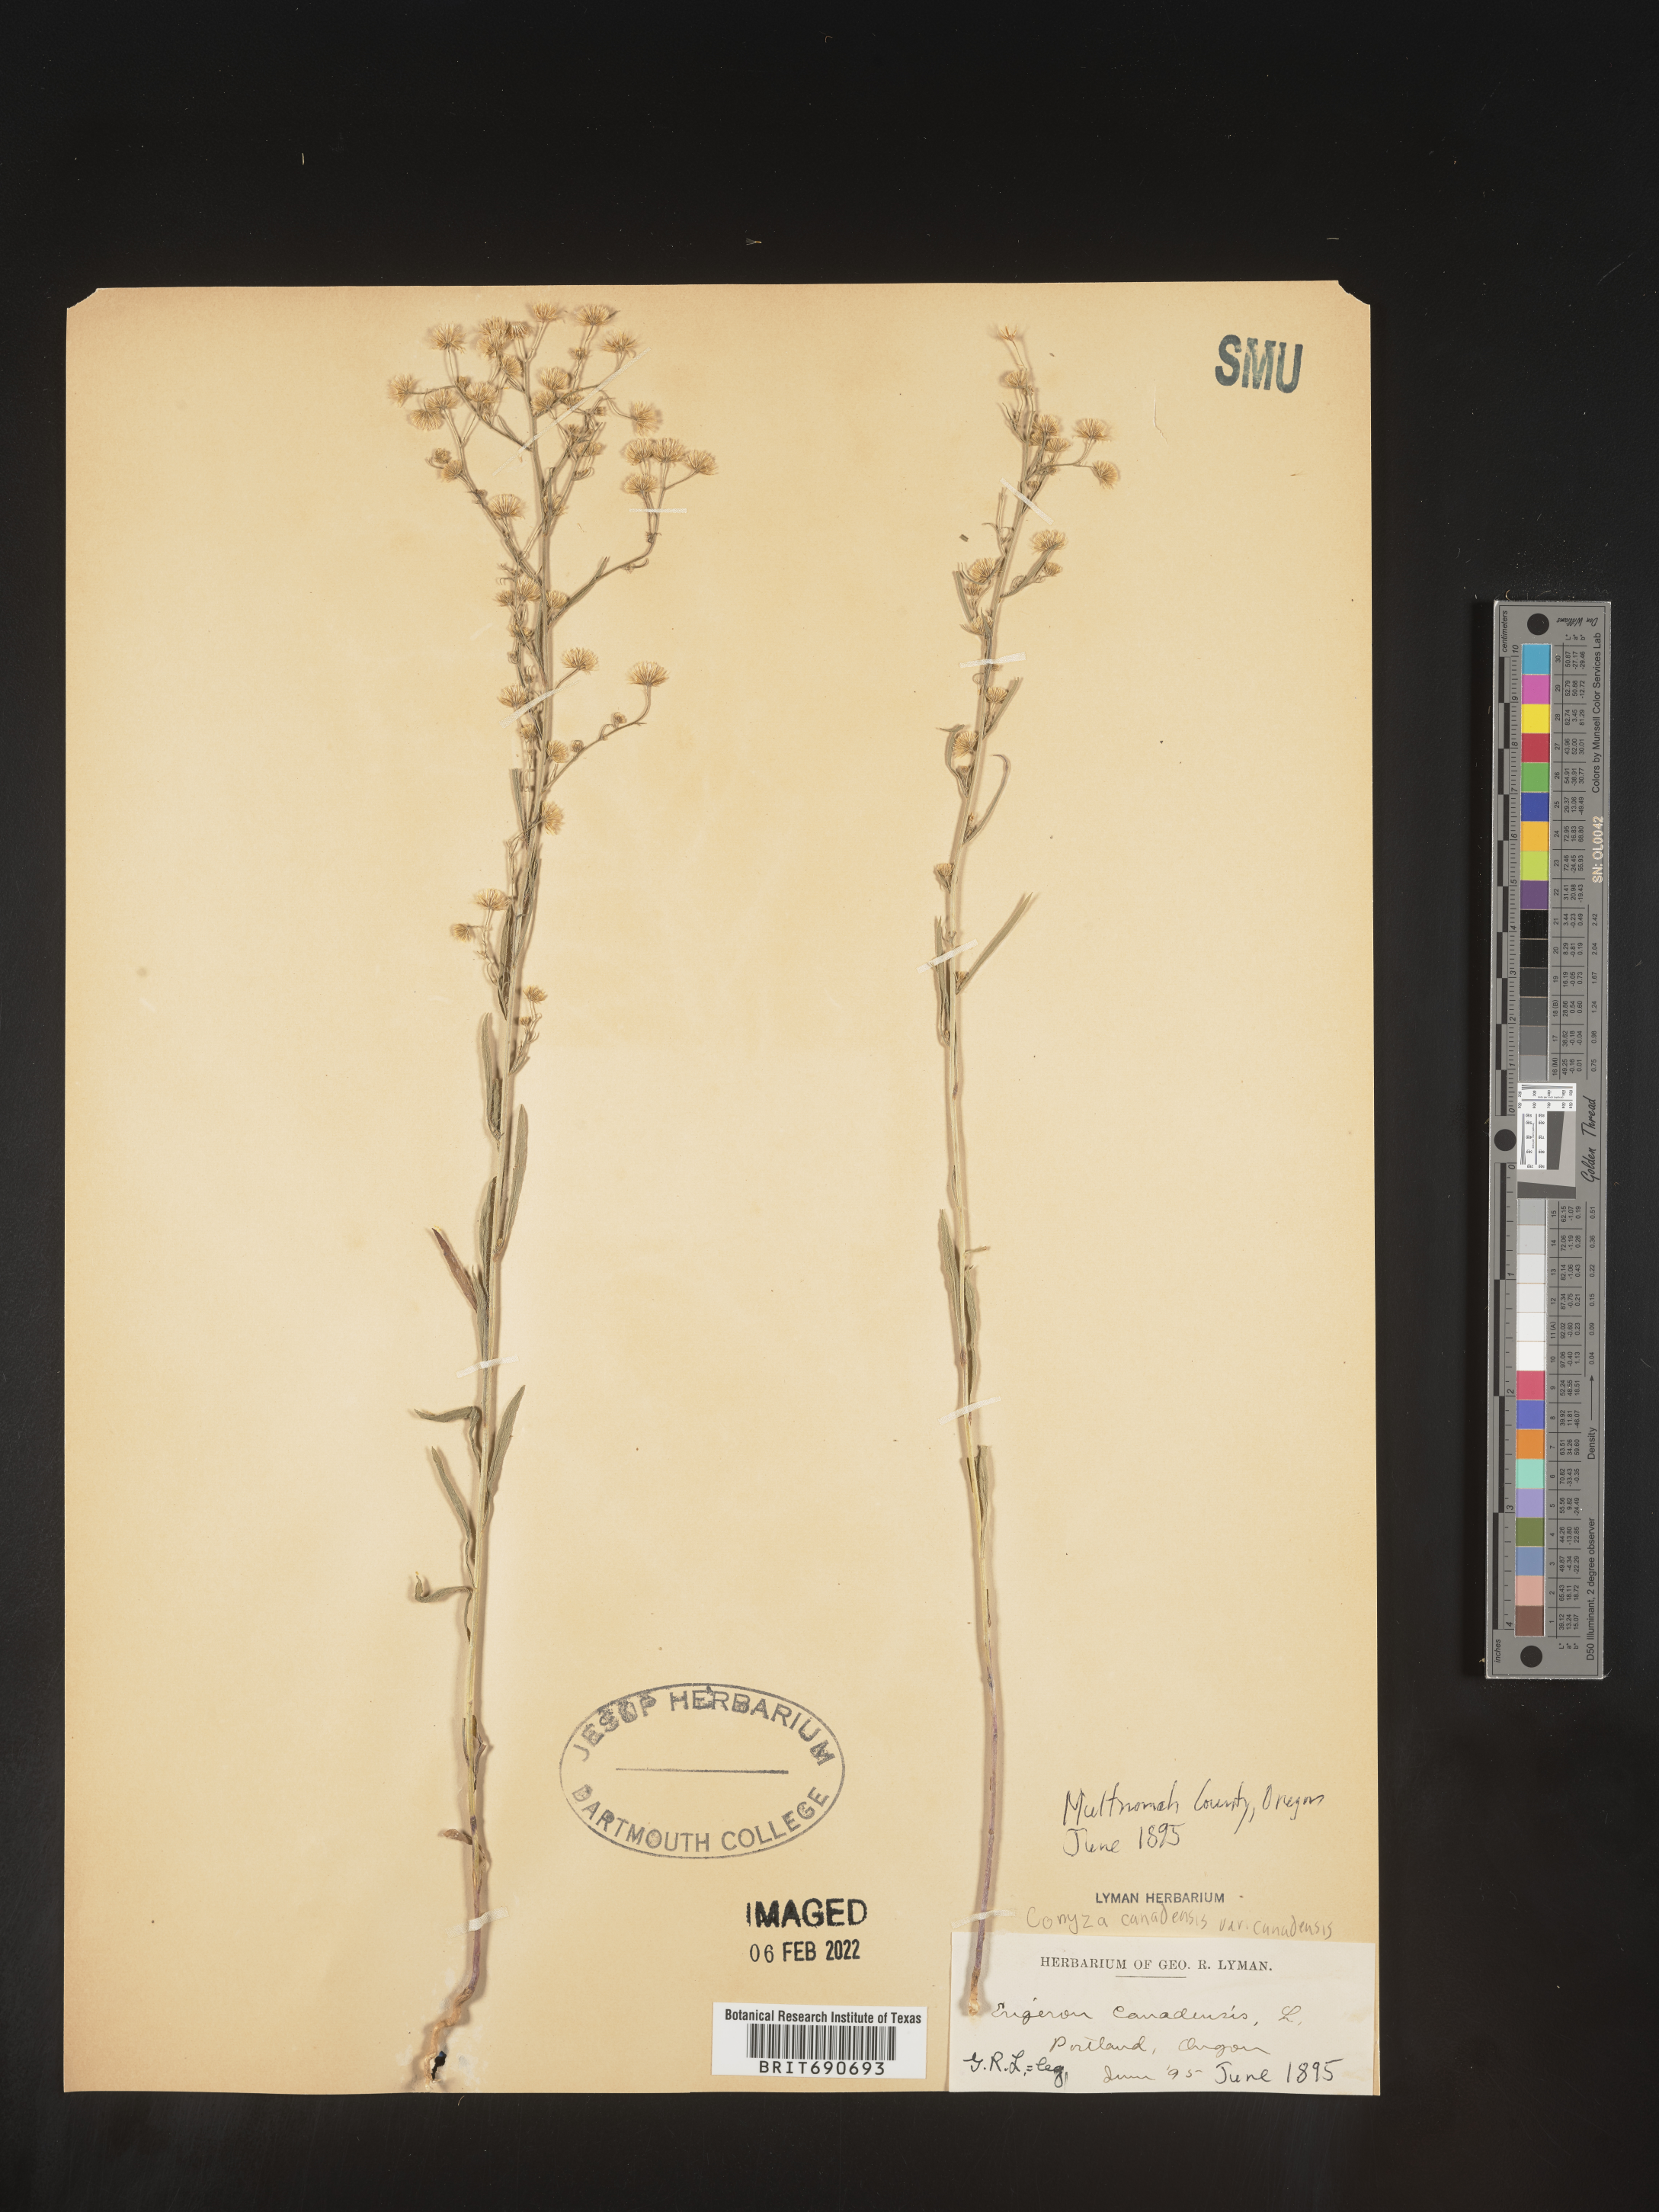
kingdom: Plantae
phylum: Tracheophyta
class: Magnoliopsida
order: Asterales
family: Asteraceae
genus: Erigeron
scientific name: Erigeron canadensis
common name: Canadian fleabane
